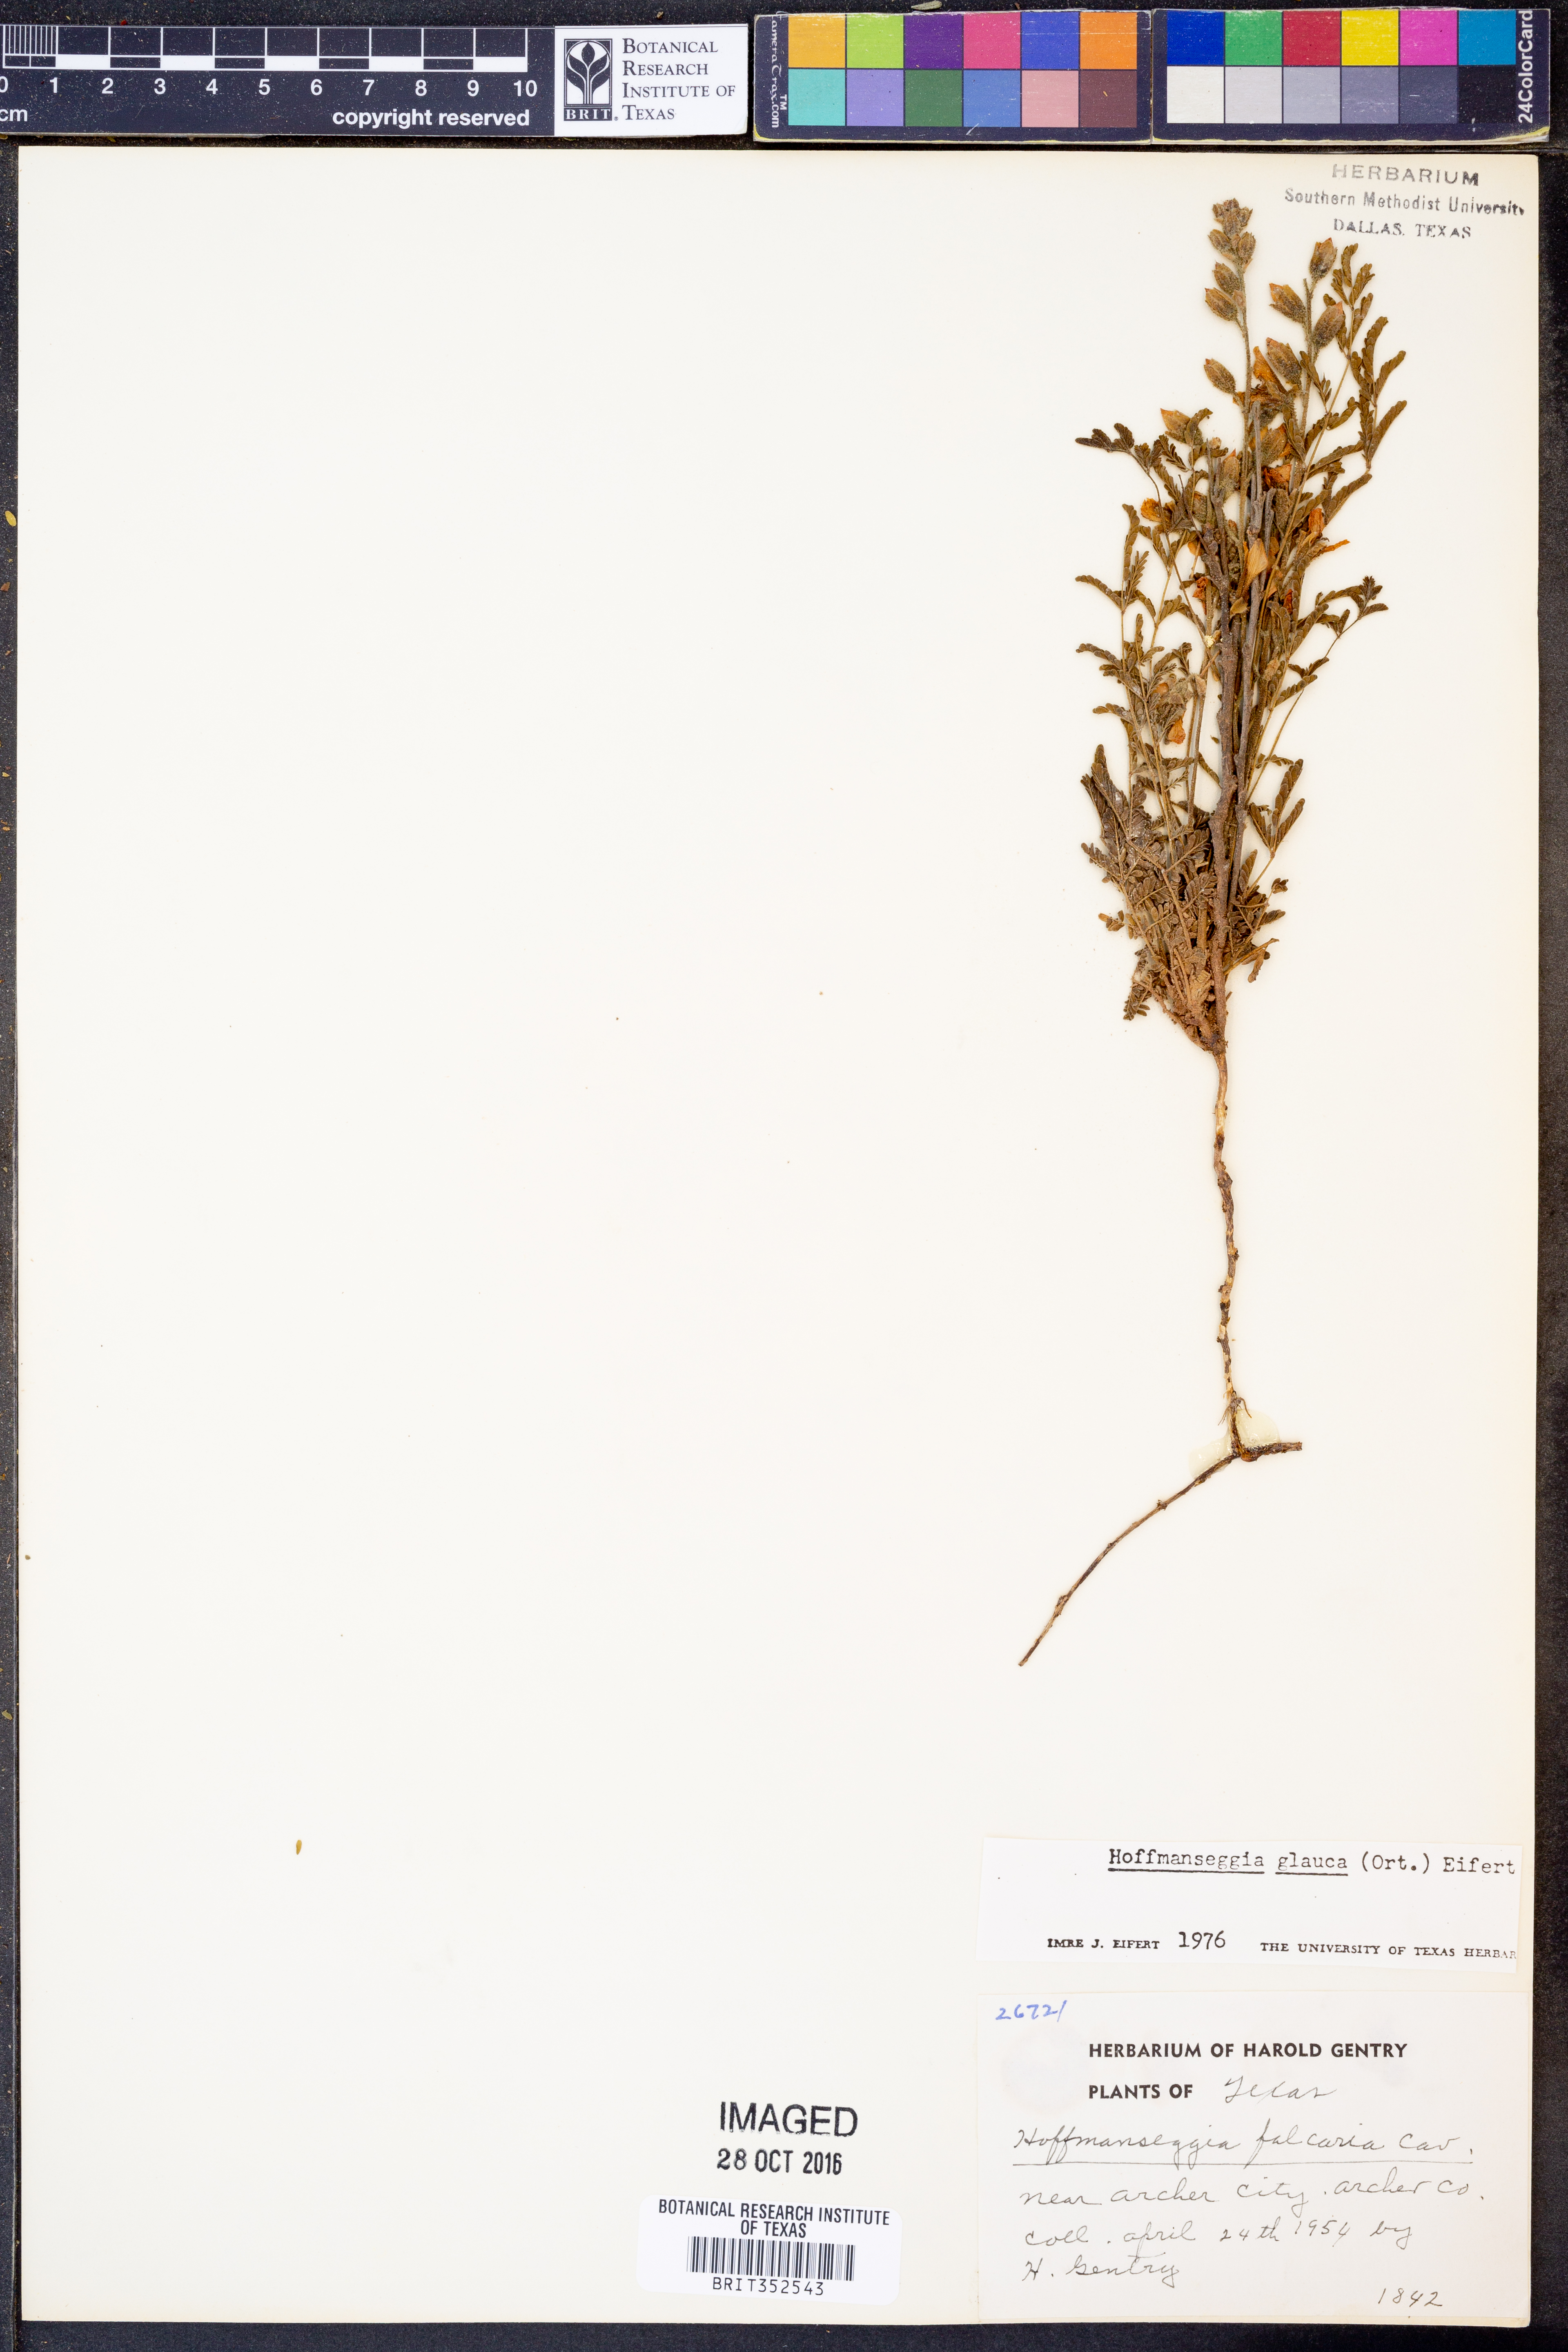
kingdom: Plantae
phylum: Tracheophyta
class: Magnoliopsida
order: Fabales
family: Fabaceae
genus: Hoffmannseggia
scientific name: Hoffmannseggia glauca
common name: Pignut
